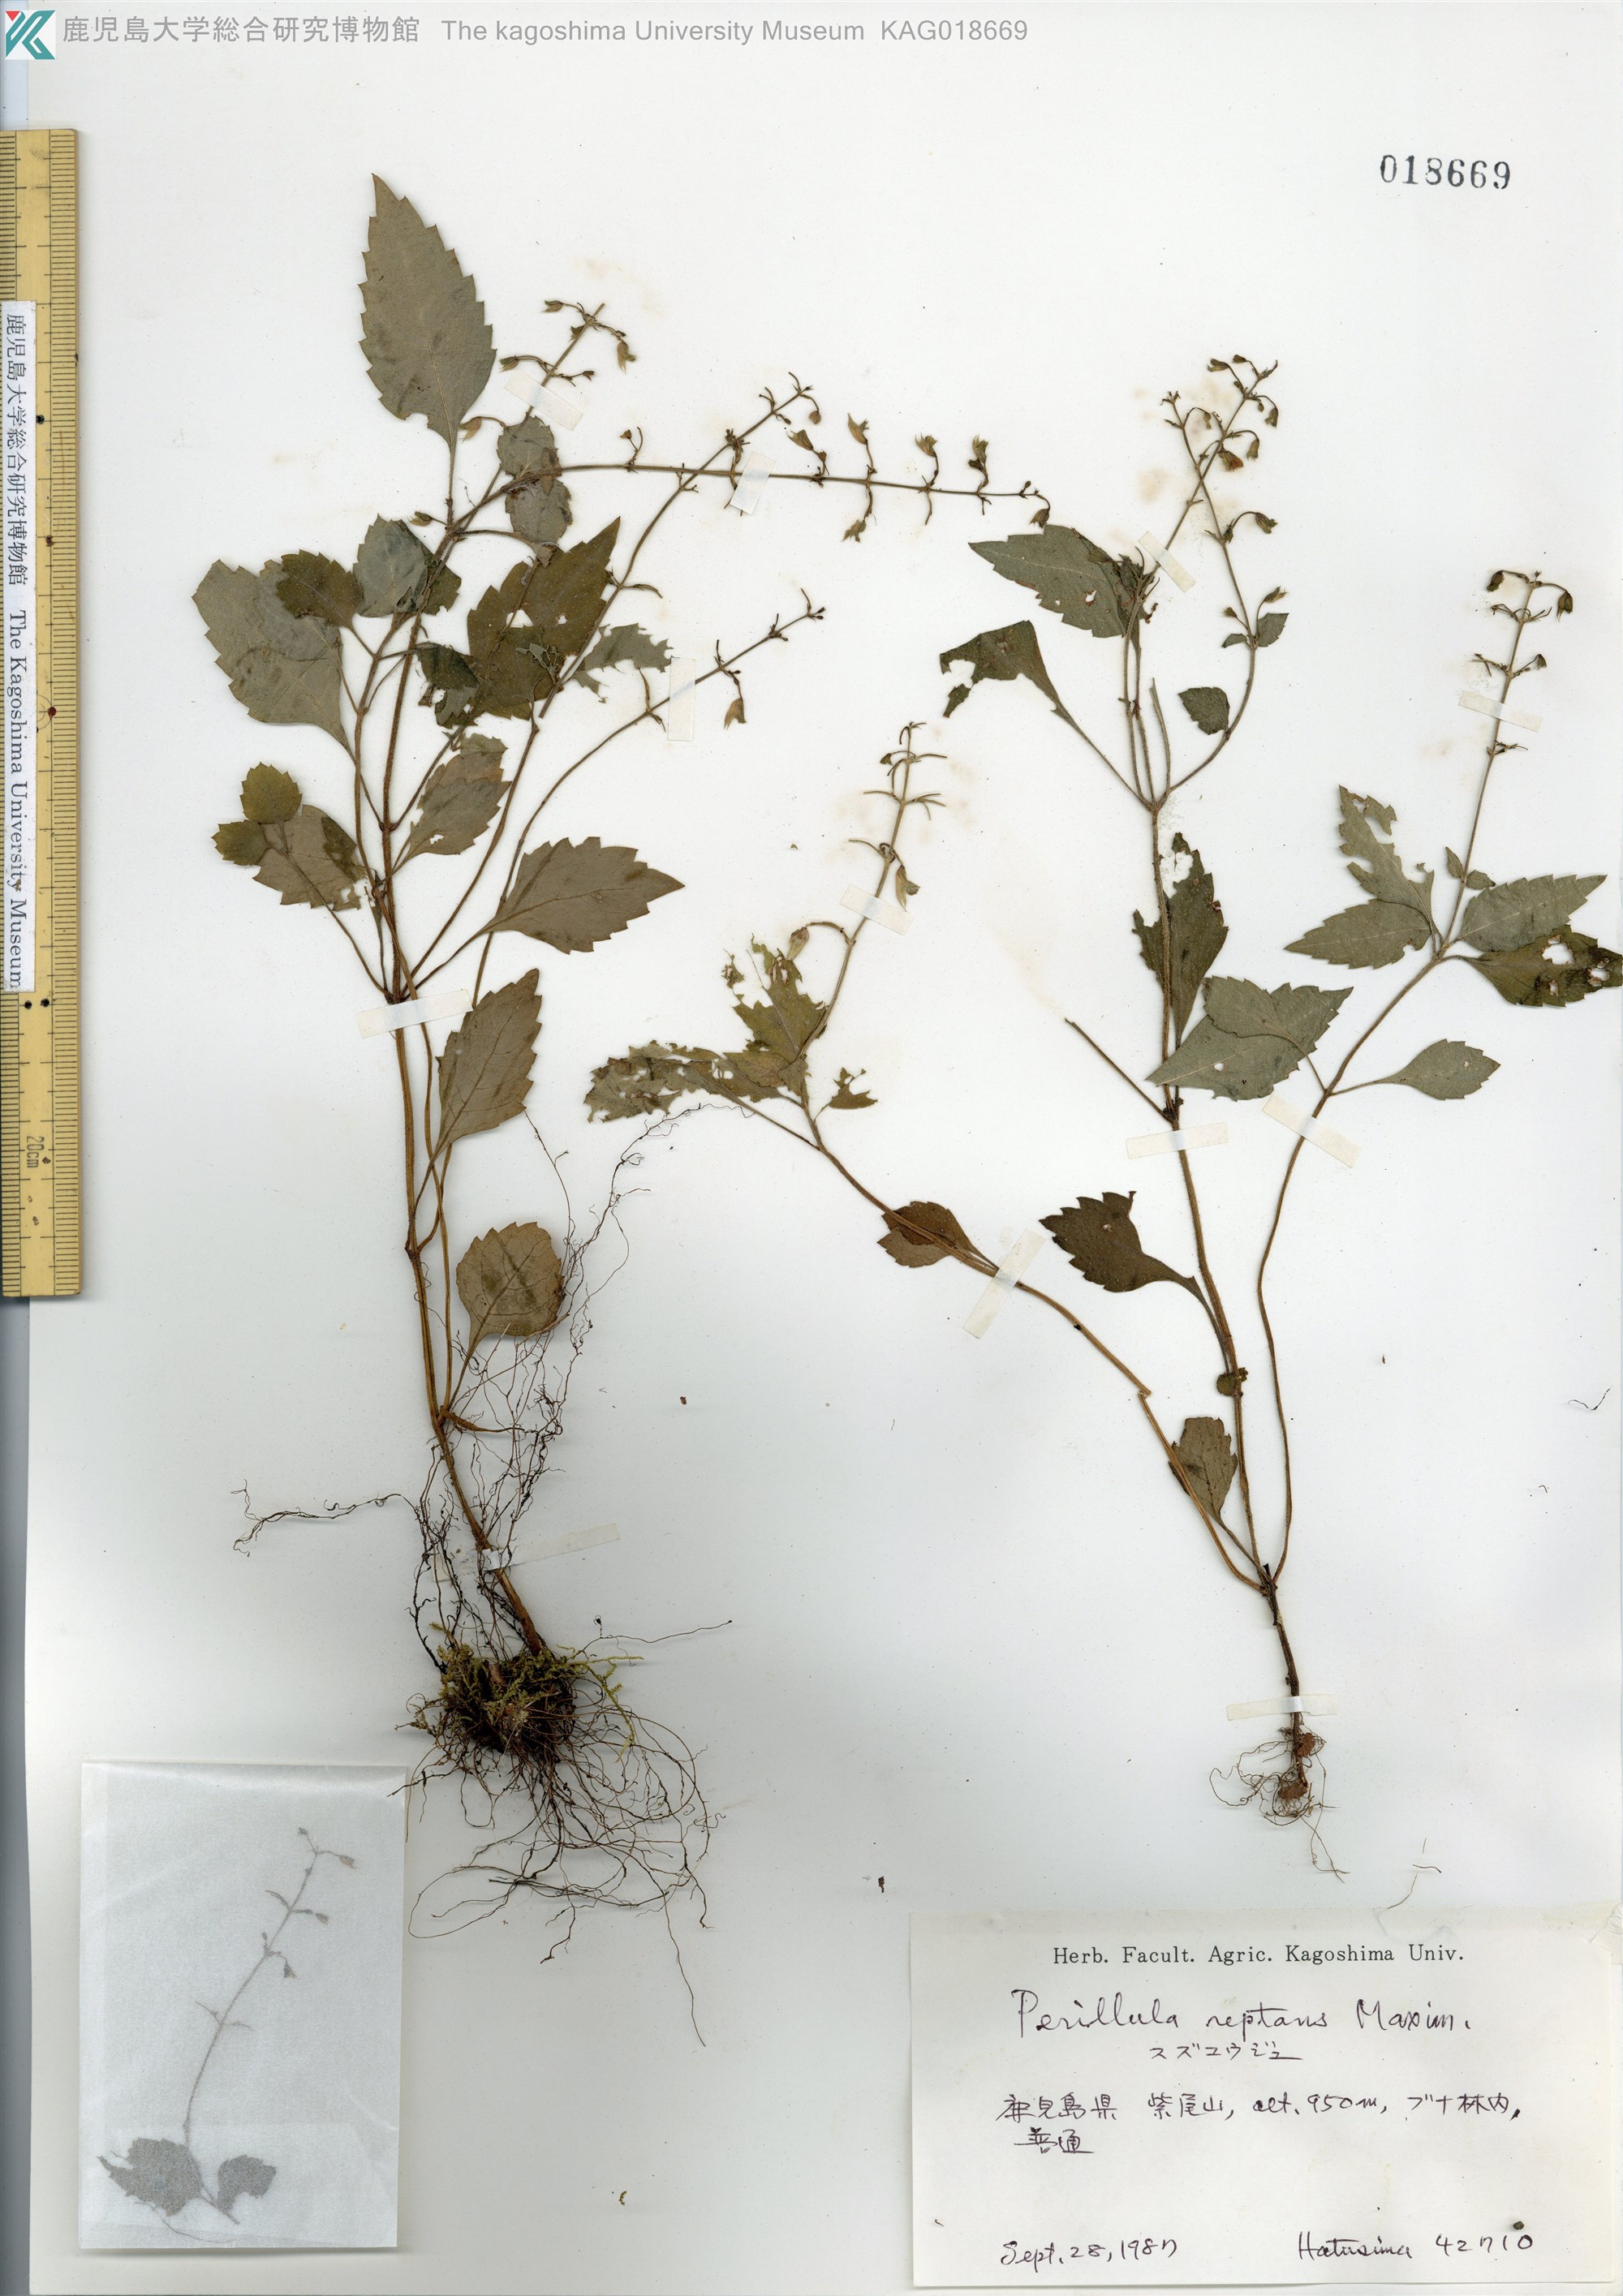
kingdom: Plantae
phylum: Tracheophyta
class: Magnoliopsida
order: Lamiales
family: Lamiaceae
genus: Perillula
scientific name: Perillula reptans
